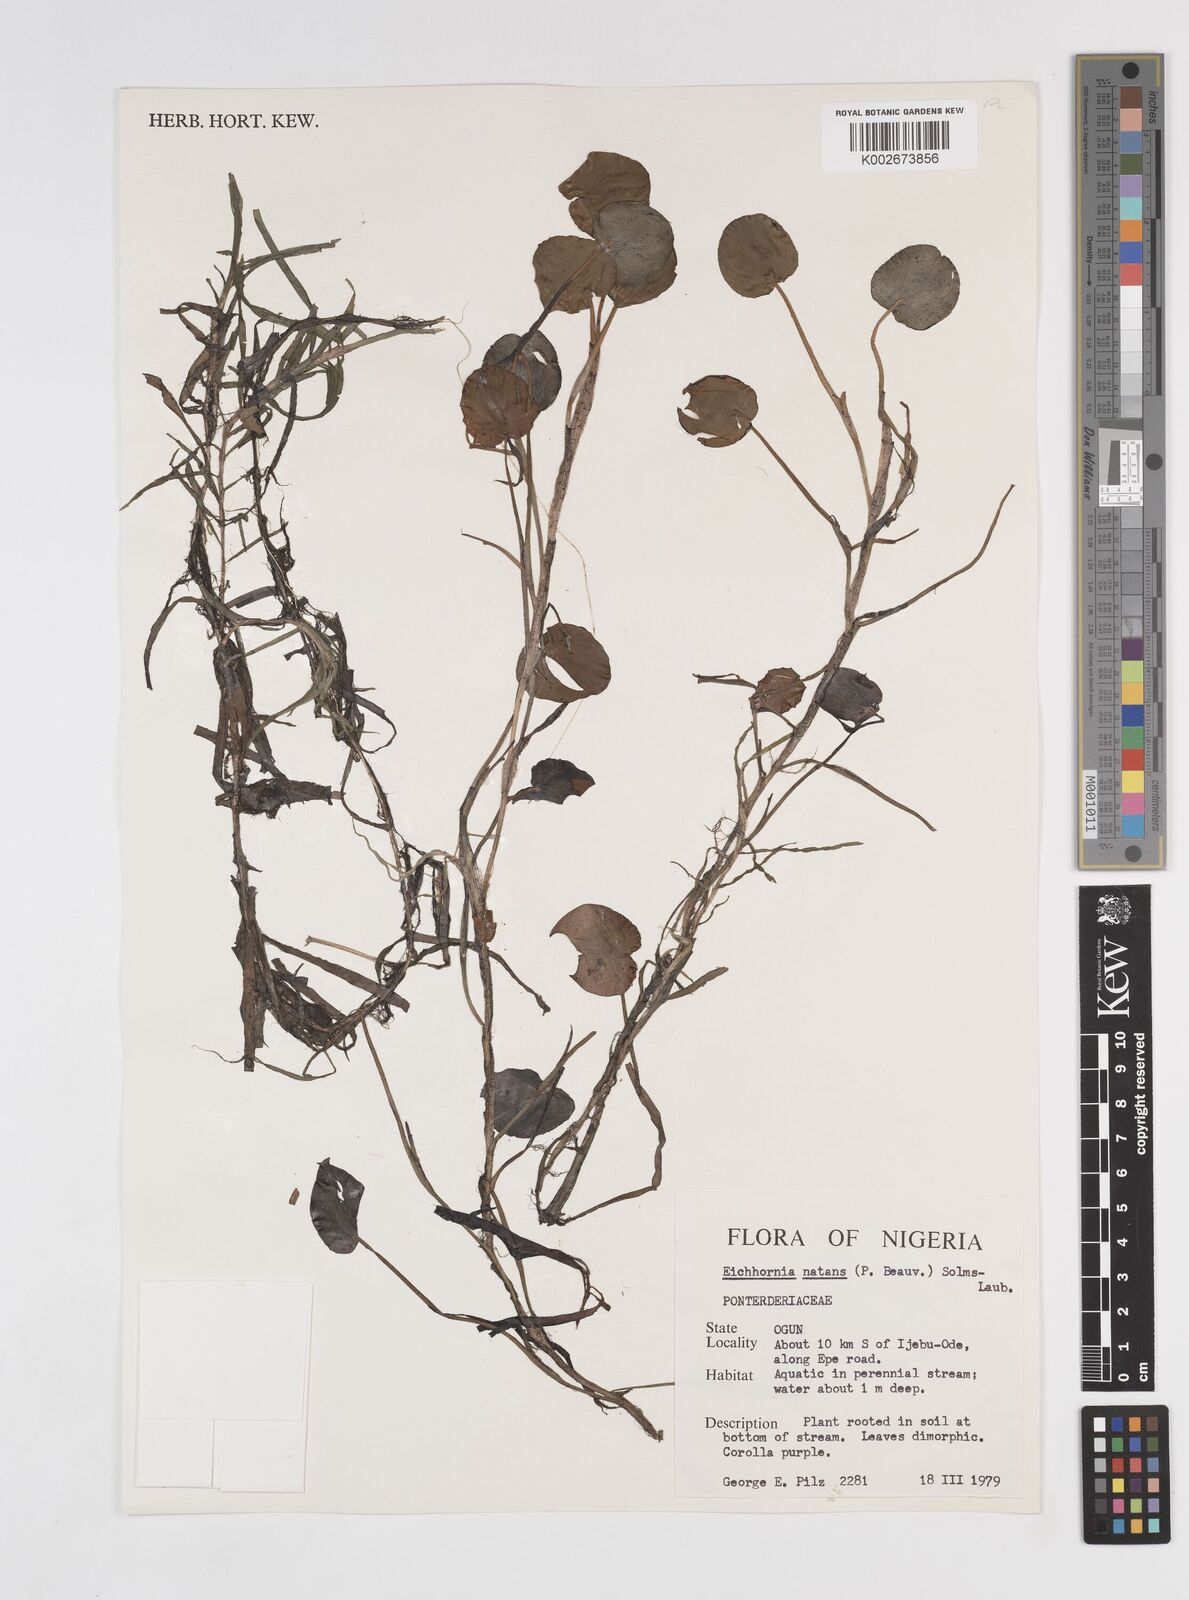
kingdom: Plantae
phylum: Tracheophyta
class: Liliopsida
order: Commelinales
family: Pontederiaceae
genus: Pontederia
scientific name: Pontederia natans
